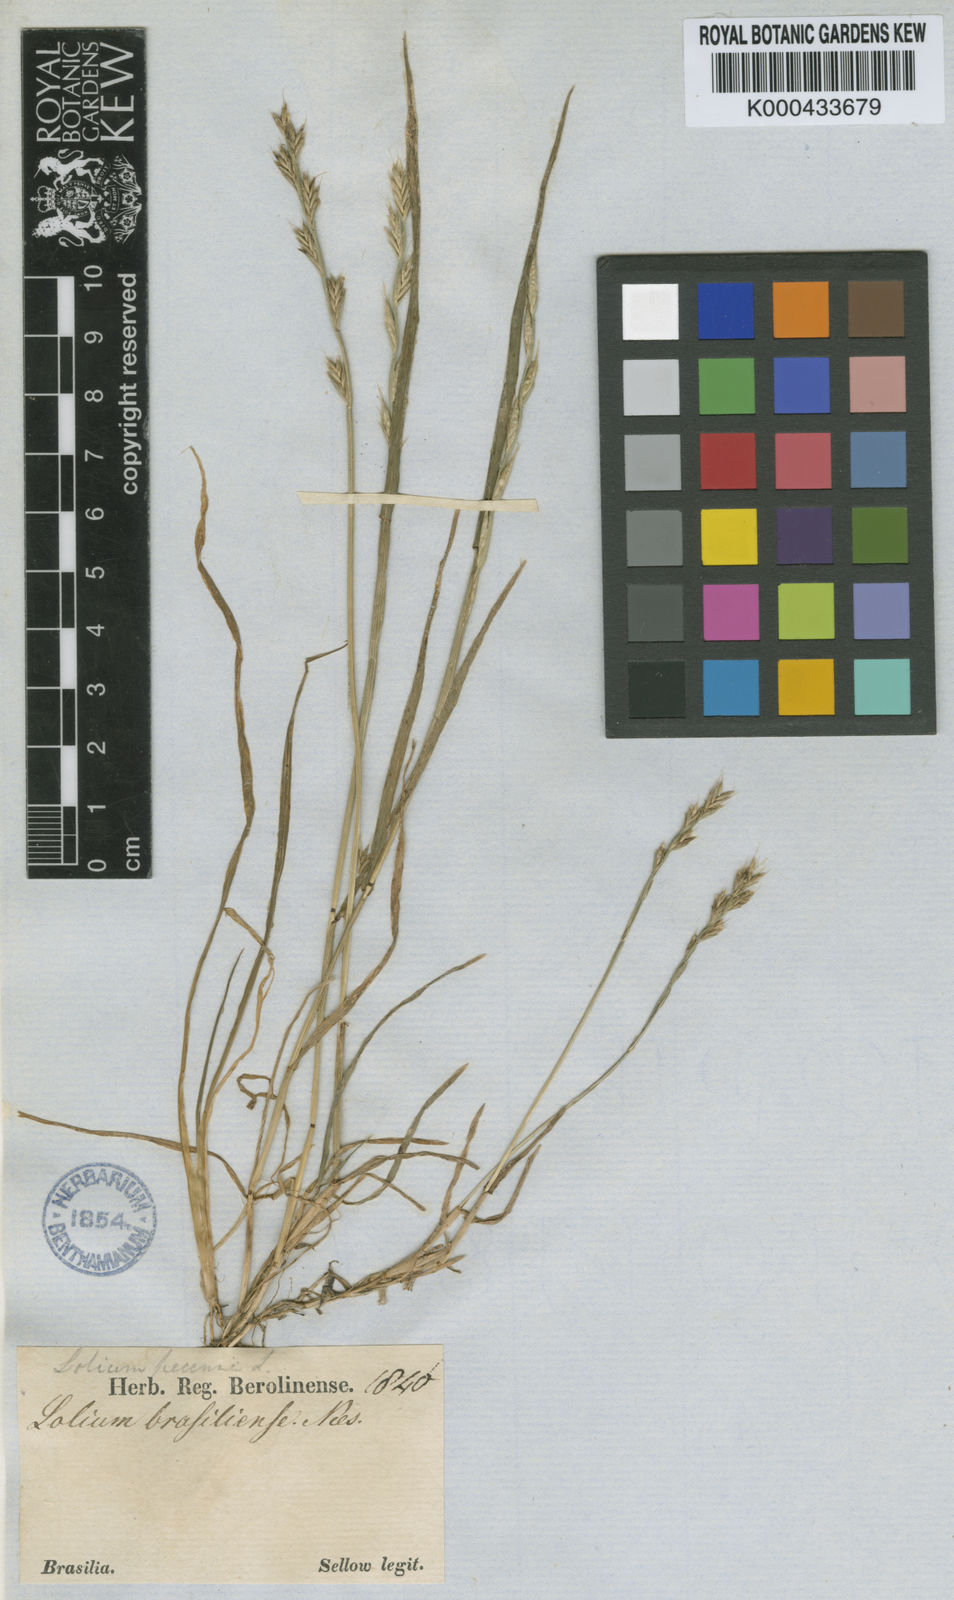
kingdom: Plantae
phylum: Tracheophyta
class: Liliopsida
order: Poales
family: Poaceae
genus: Lolium
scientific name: Lolium perenne
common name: Perennial ryegrass
